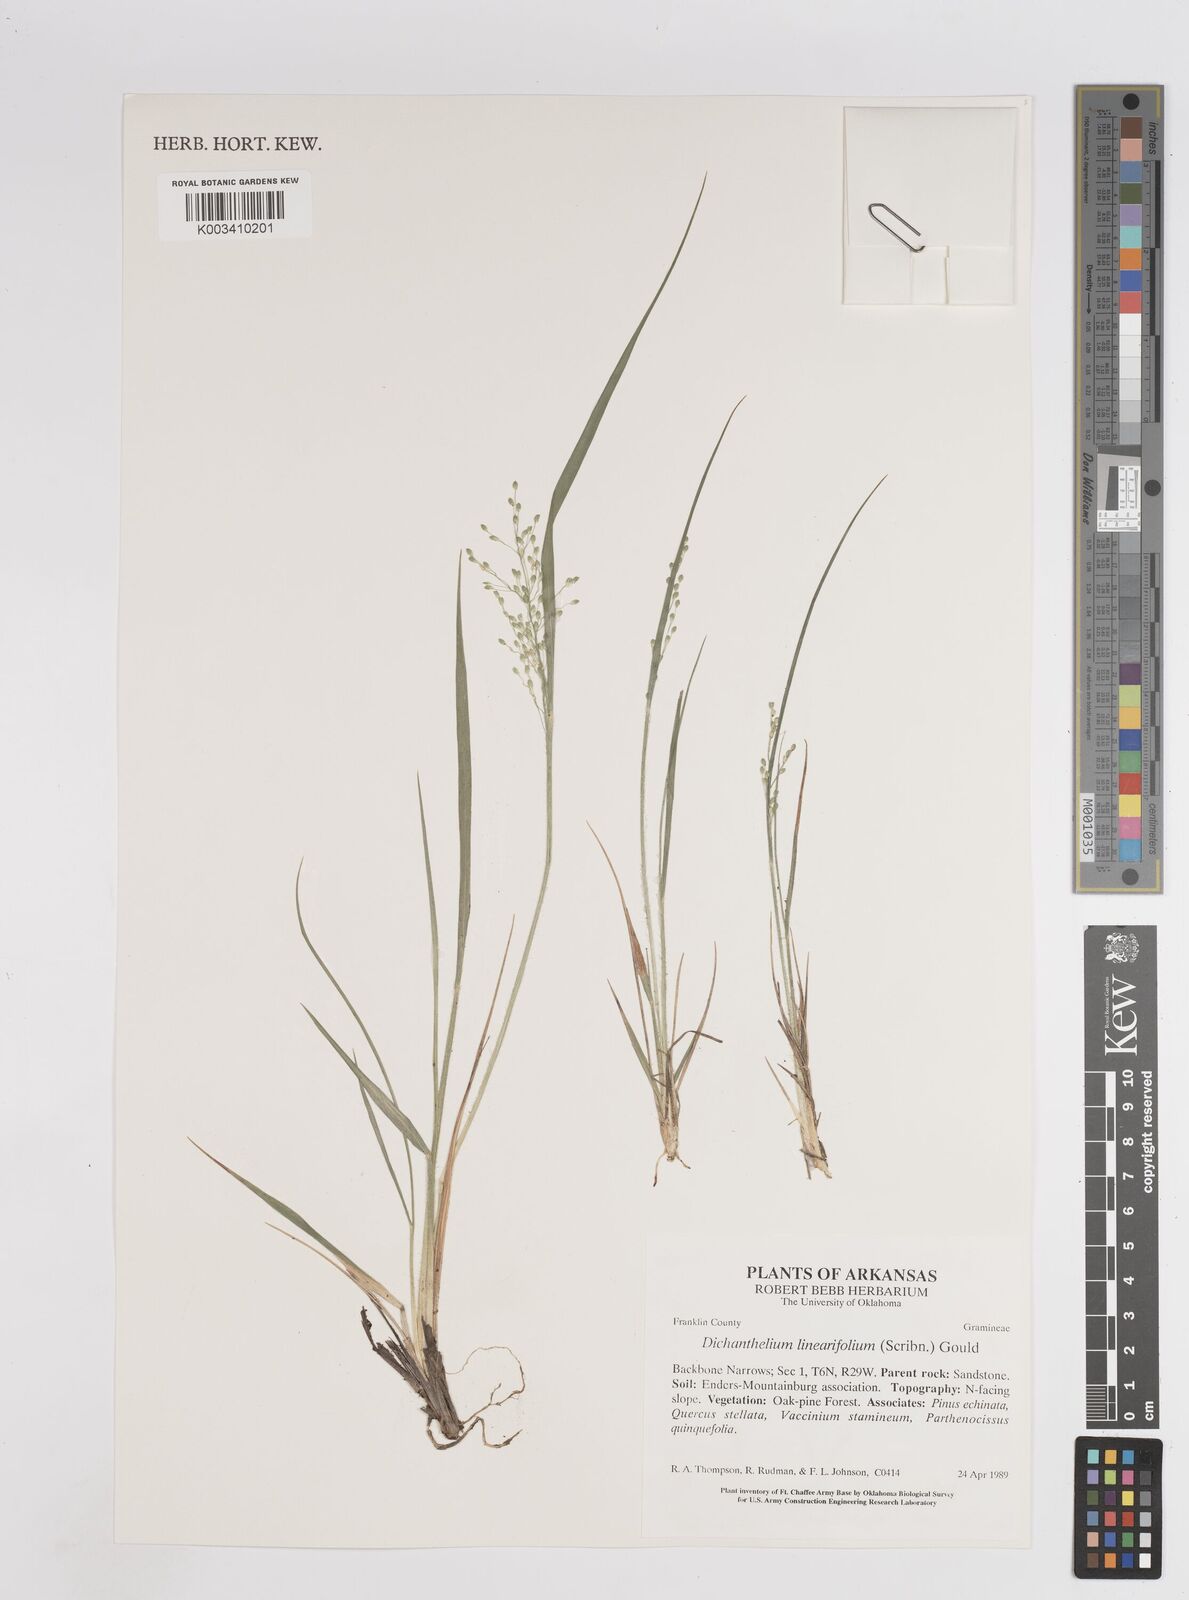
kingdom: Plantae
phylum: Tracheophyta
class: Liliopsida
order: Poales
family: Poaceae
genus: Dichanthelium
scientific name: Dichanthelium linearifolium
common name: Linear-leaved panicgrass
